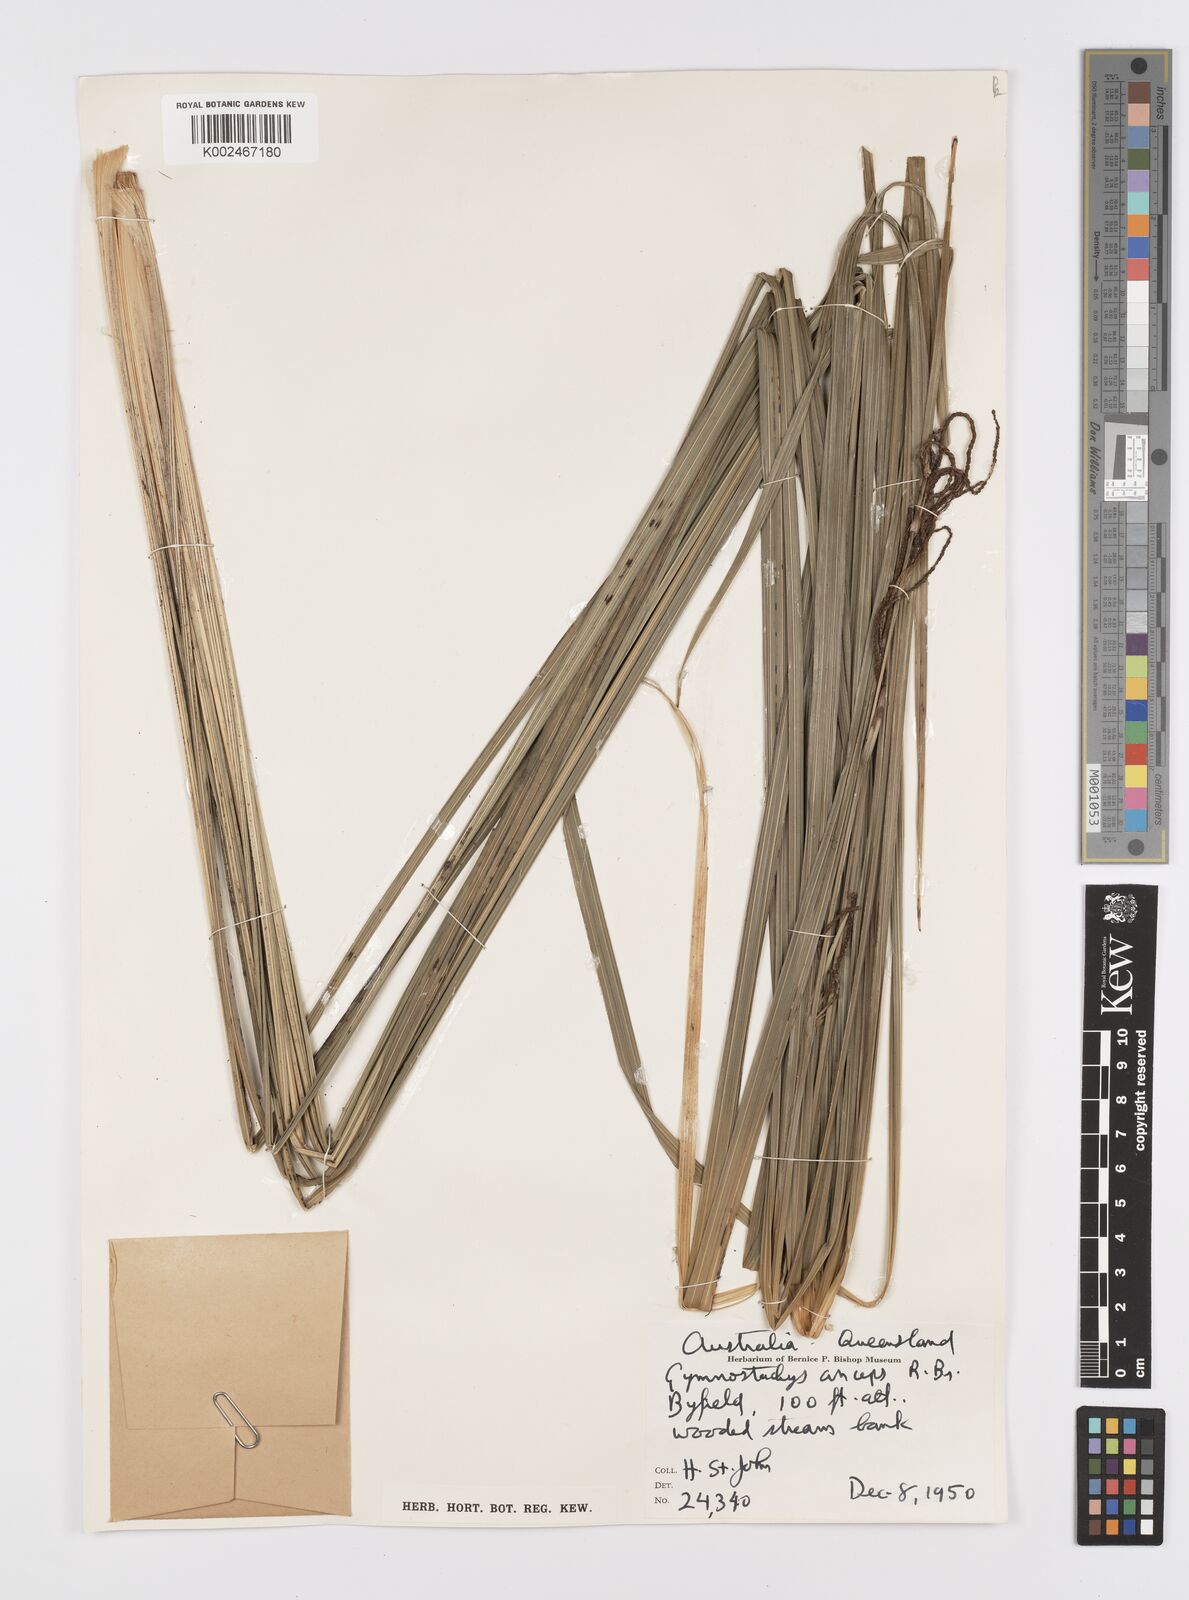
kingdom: Plantae
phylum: Tracheophyta
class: Liliopsida
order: Alismatales
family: Araceae
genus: Gymnostachys
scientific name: Gymnostachys anceps
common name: Settler's-flax
